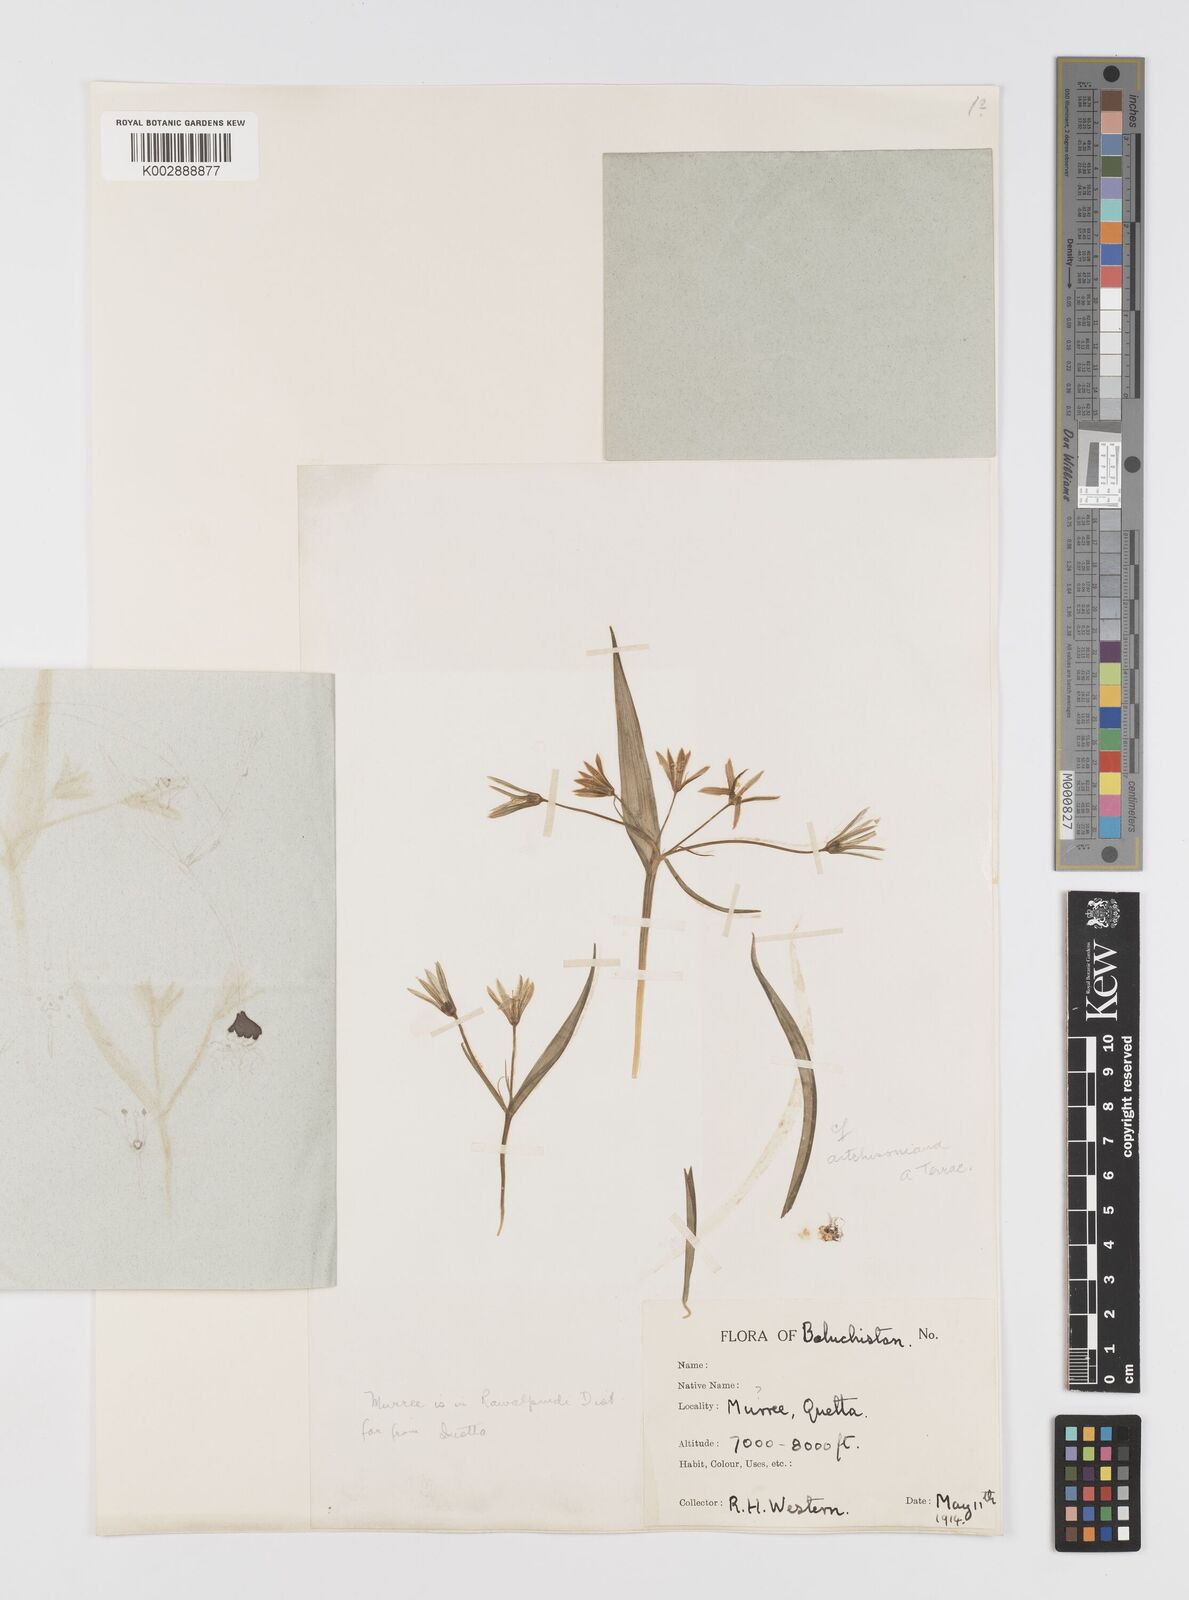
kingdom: Plantae
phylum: Tracheophyta
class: Liliopsida
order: Liliales
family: Liliaceae
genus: Gagea
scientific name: Gagea
